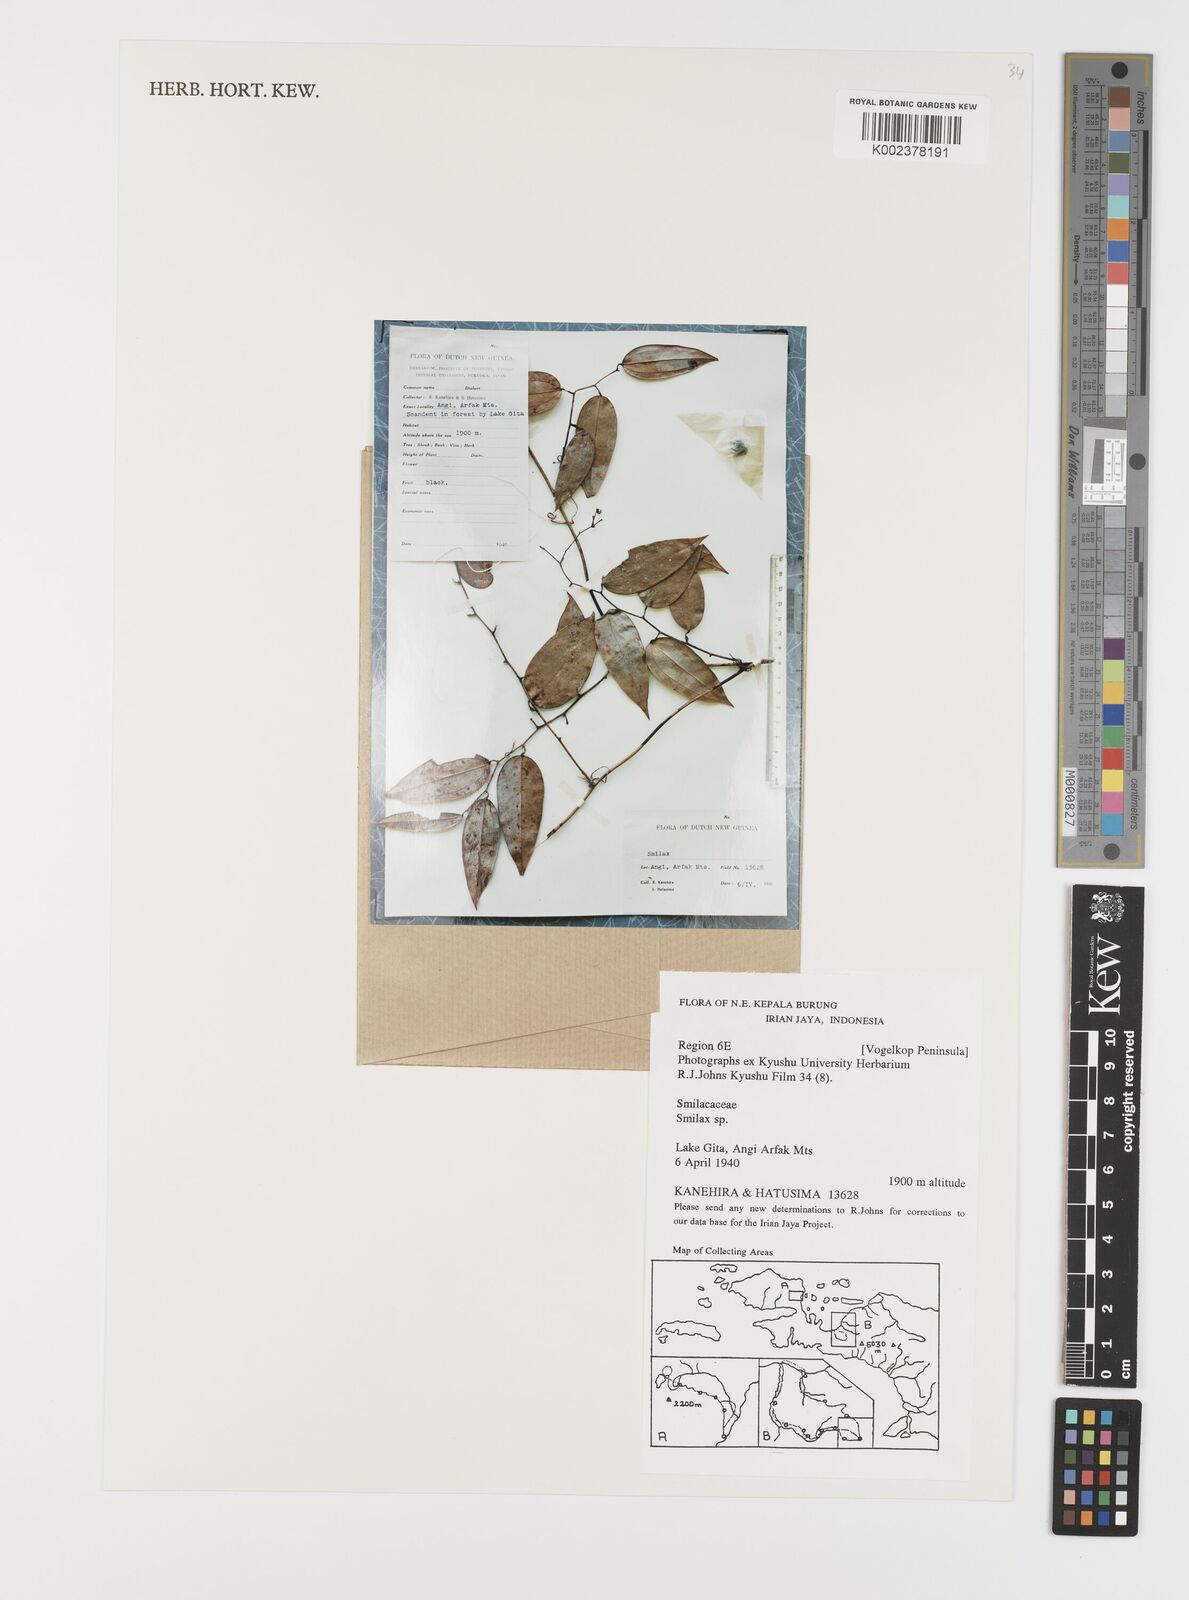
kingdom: Plantae
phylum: Tracheophyta
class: Liliopsida
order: Liliales
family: Smilacaceae
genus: Smilax
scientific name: Smilax
